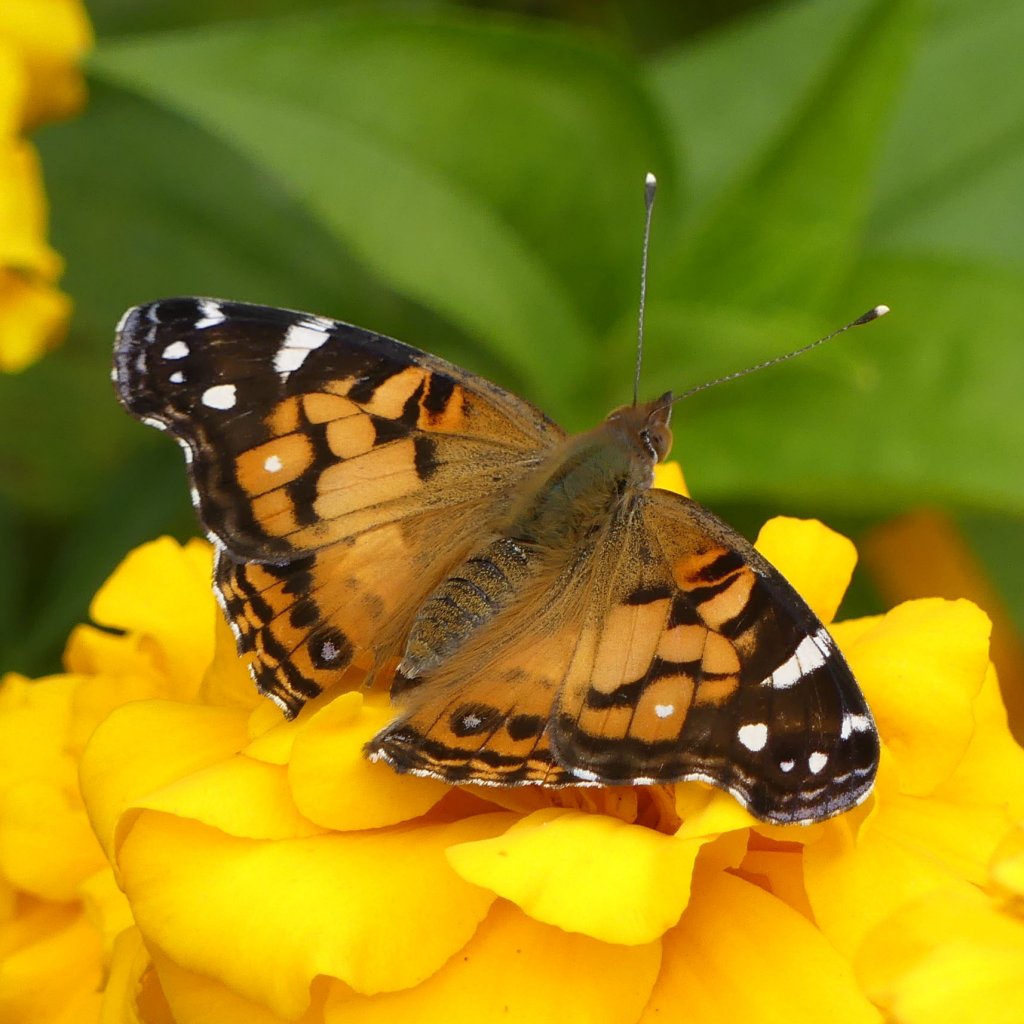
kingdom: Animalia
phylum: Arthropoda
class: Insecta
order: Lepidoptera
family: Nymphalidae
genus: Vanessa
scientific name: Vanessa virginiensis
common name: American Lady
